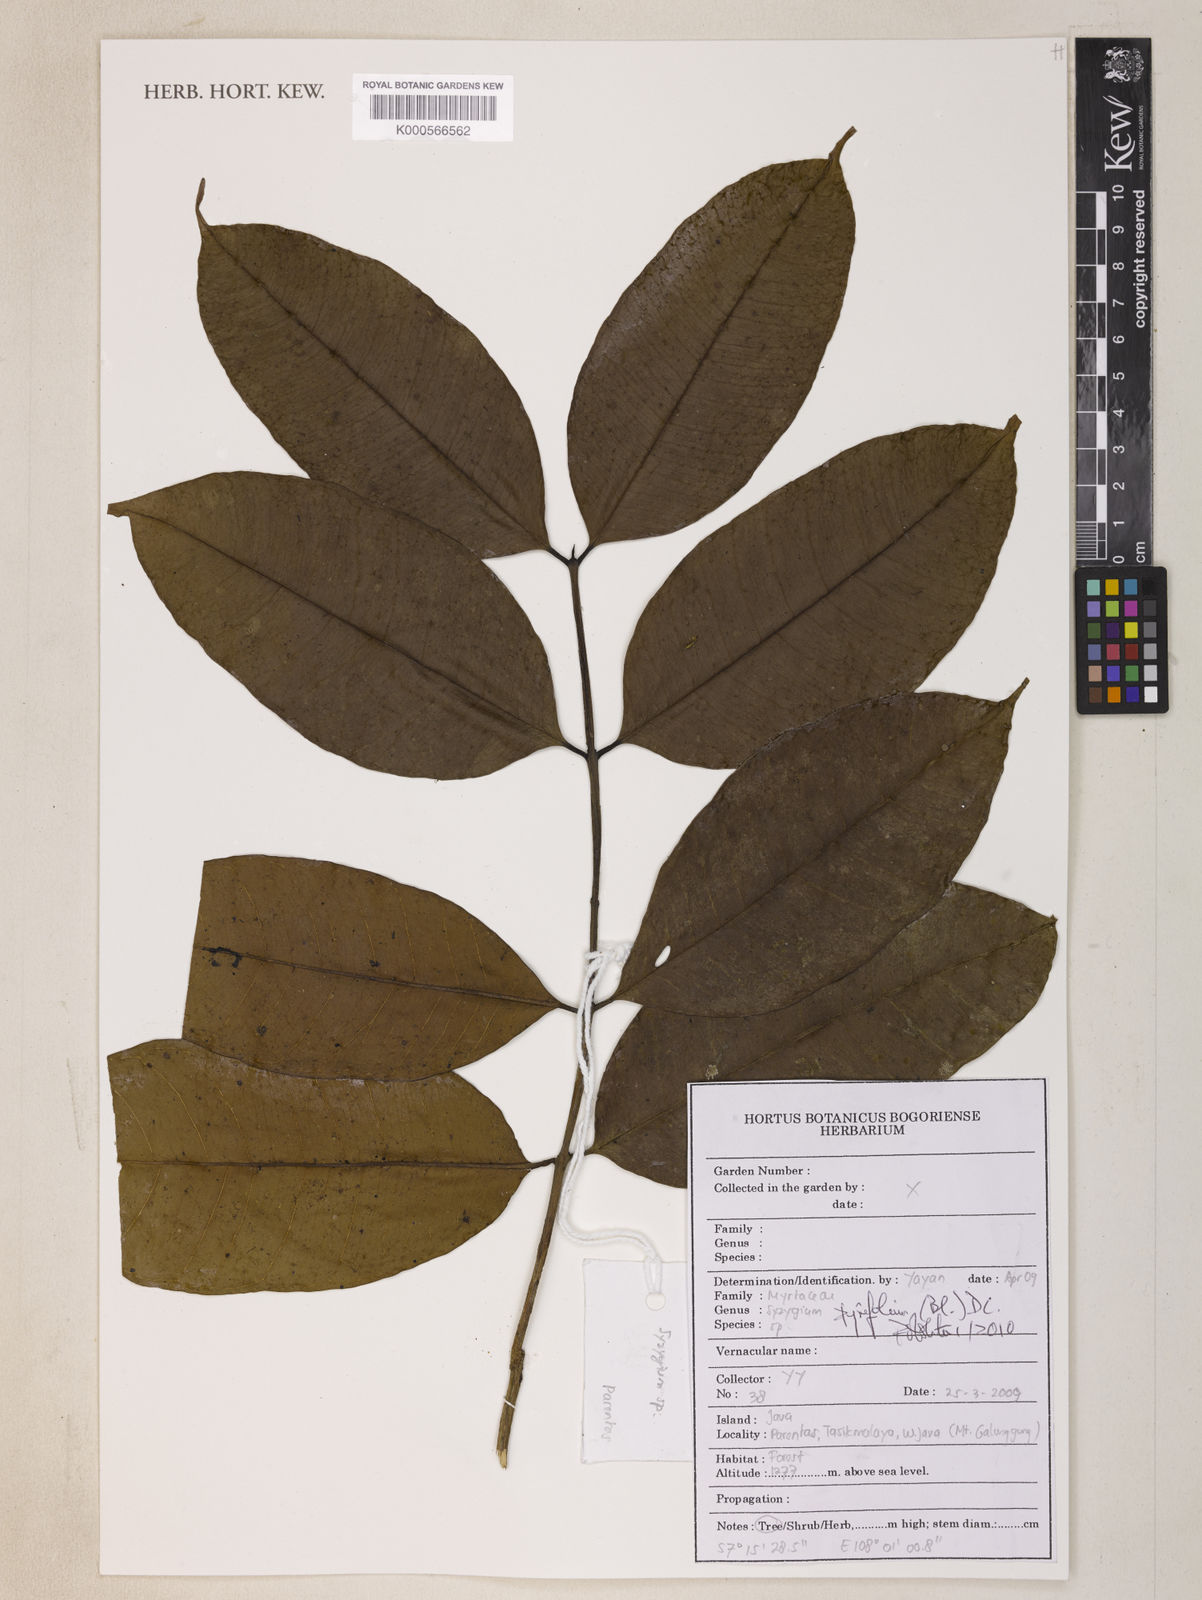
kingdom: Plantae
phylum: Tracheophyta
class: Magnoliopsida
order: Myrtales
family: Myrtaceae
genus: Syzygium
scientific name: Syzygium pyrifolium
